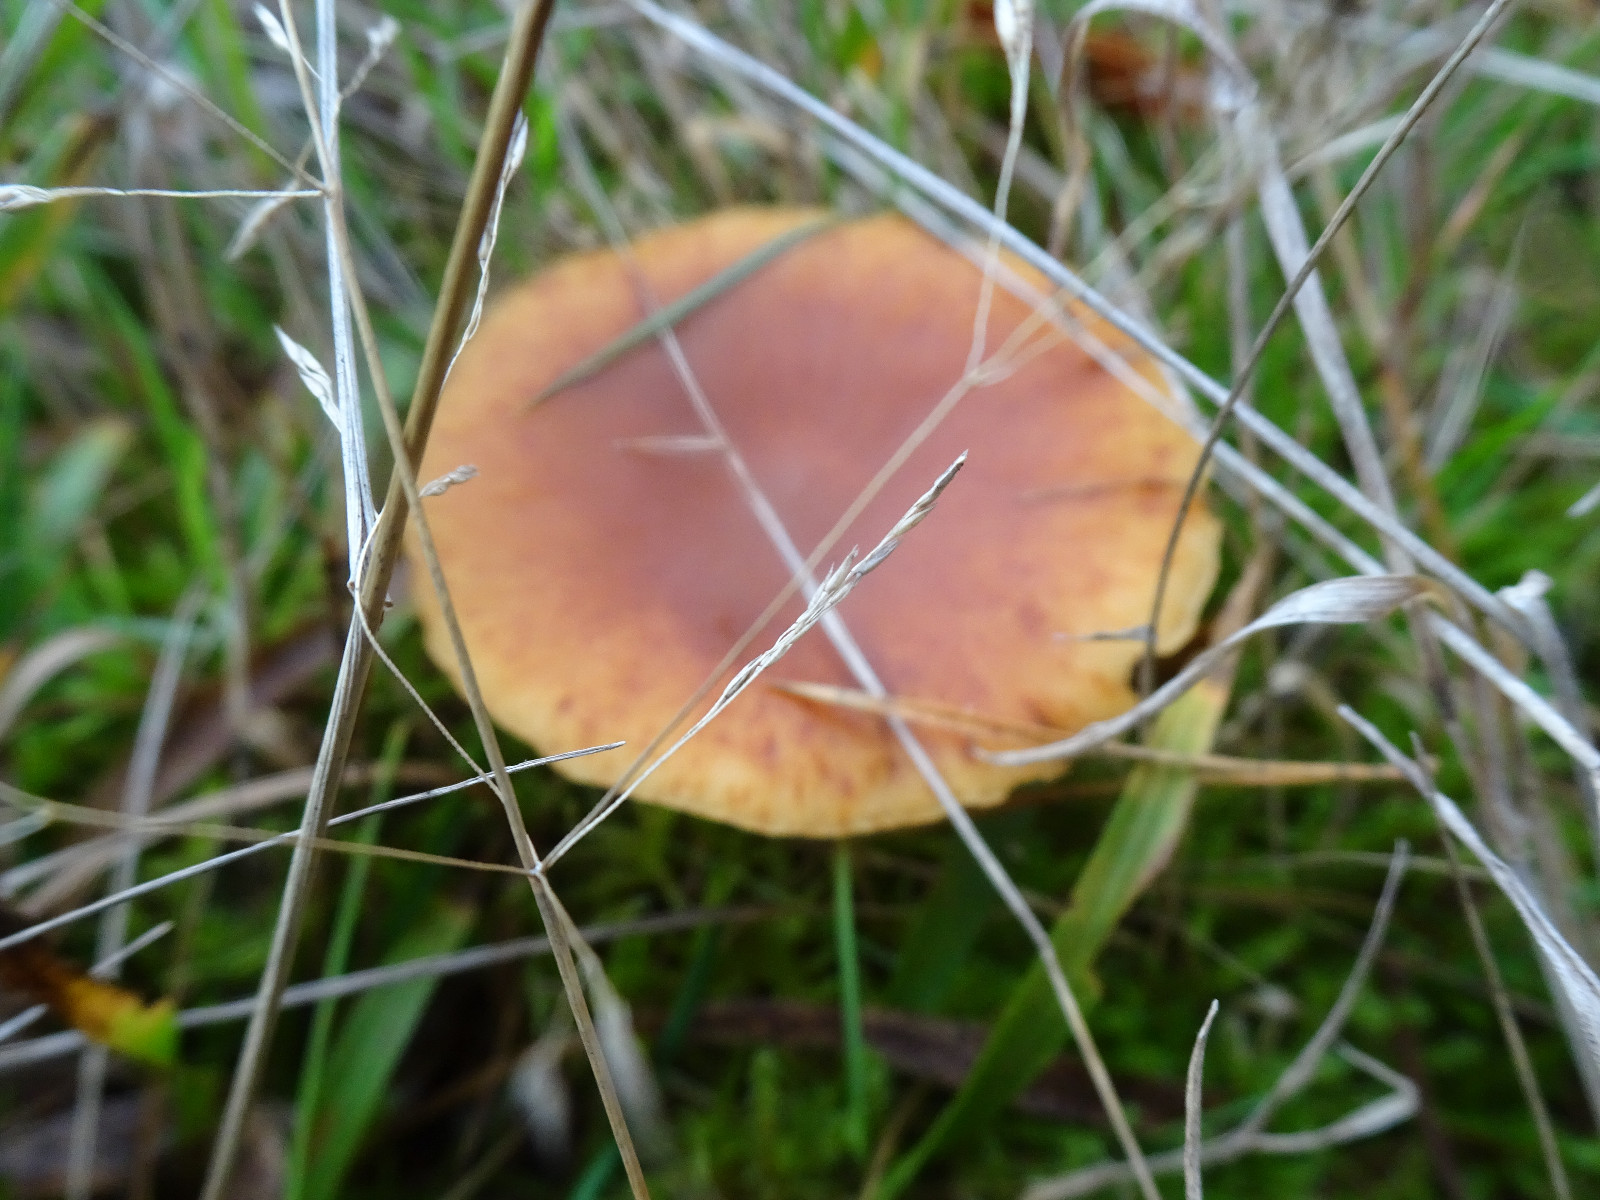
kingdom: Fungi
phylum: Basidiomycota
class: Agaricomycetes
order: Agaricales
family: Hymenogastraceae
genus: Gymnopilus
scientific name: Gymnopilus penetrans
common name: plettet flammehat
